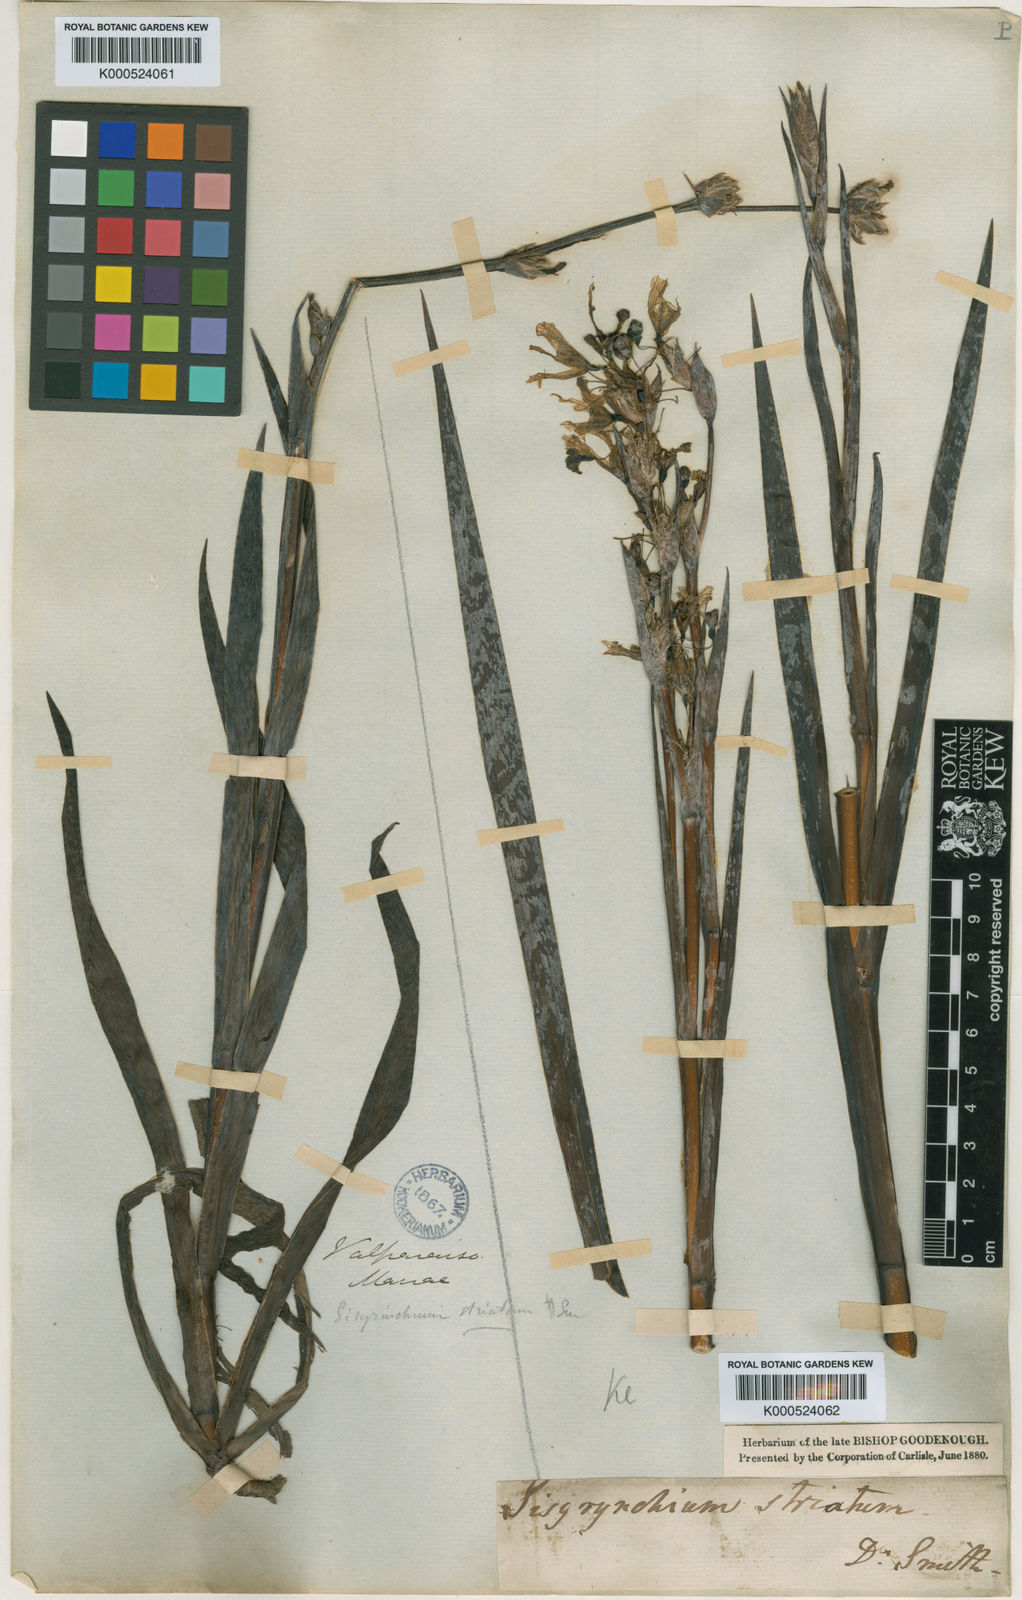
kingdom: Plantae
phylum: Tracheophyta
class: Liliopsida
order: Asparagales
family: Iridaceae
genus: Sisyrinchium
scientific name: Sisyrinchium striatum
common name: Pale yellow-eyed-grass
